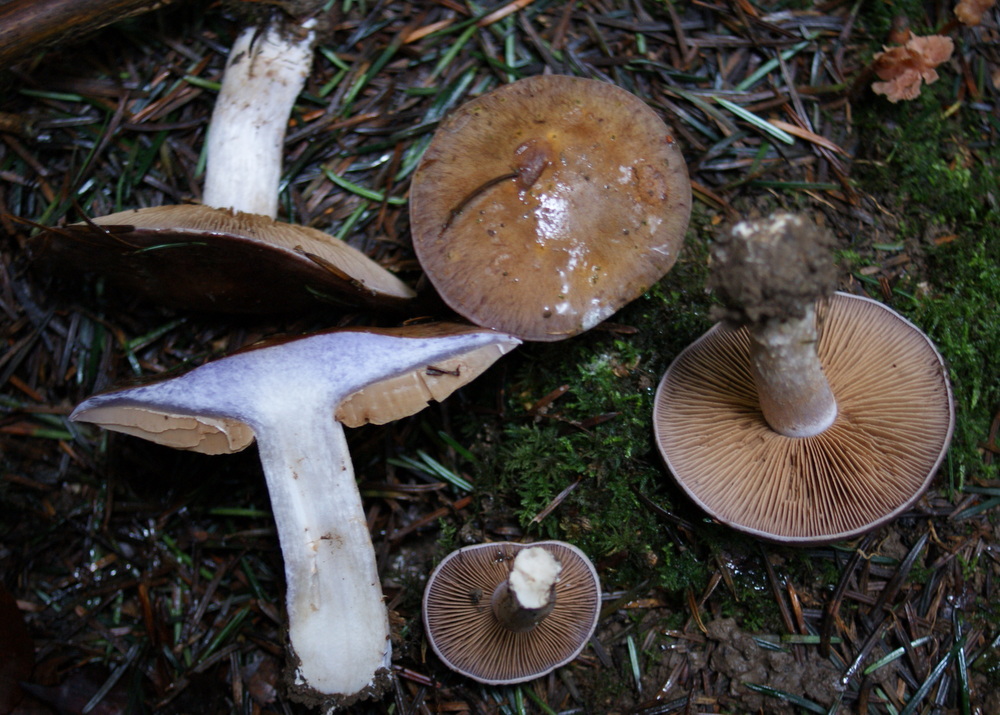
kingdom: Fungi
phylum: Basidiomycota
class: Agaricomycetes
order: Agaricales
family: Cortinariaceae
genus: Cortinarius
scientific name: Cortinarius largus
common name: violetrandet slørhat
